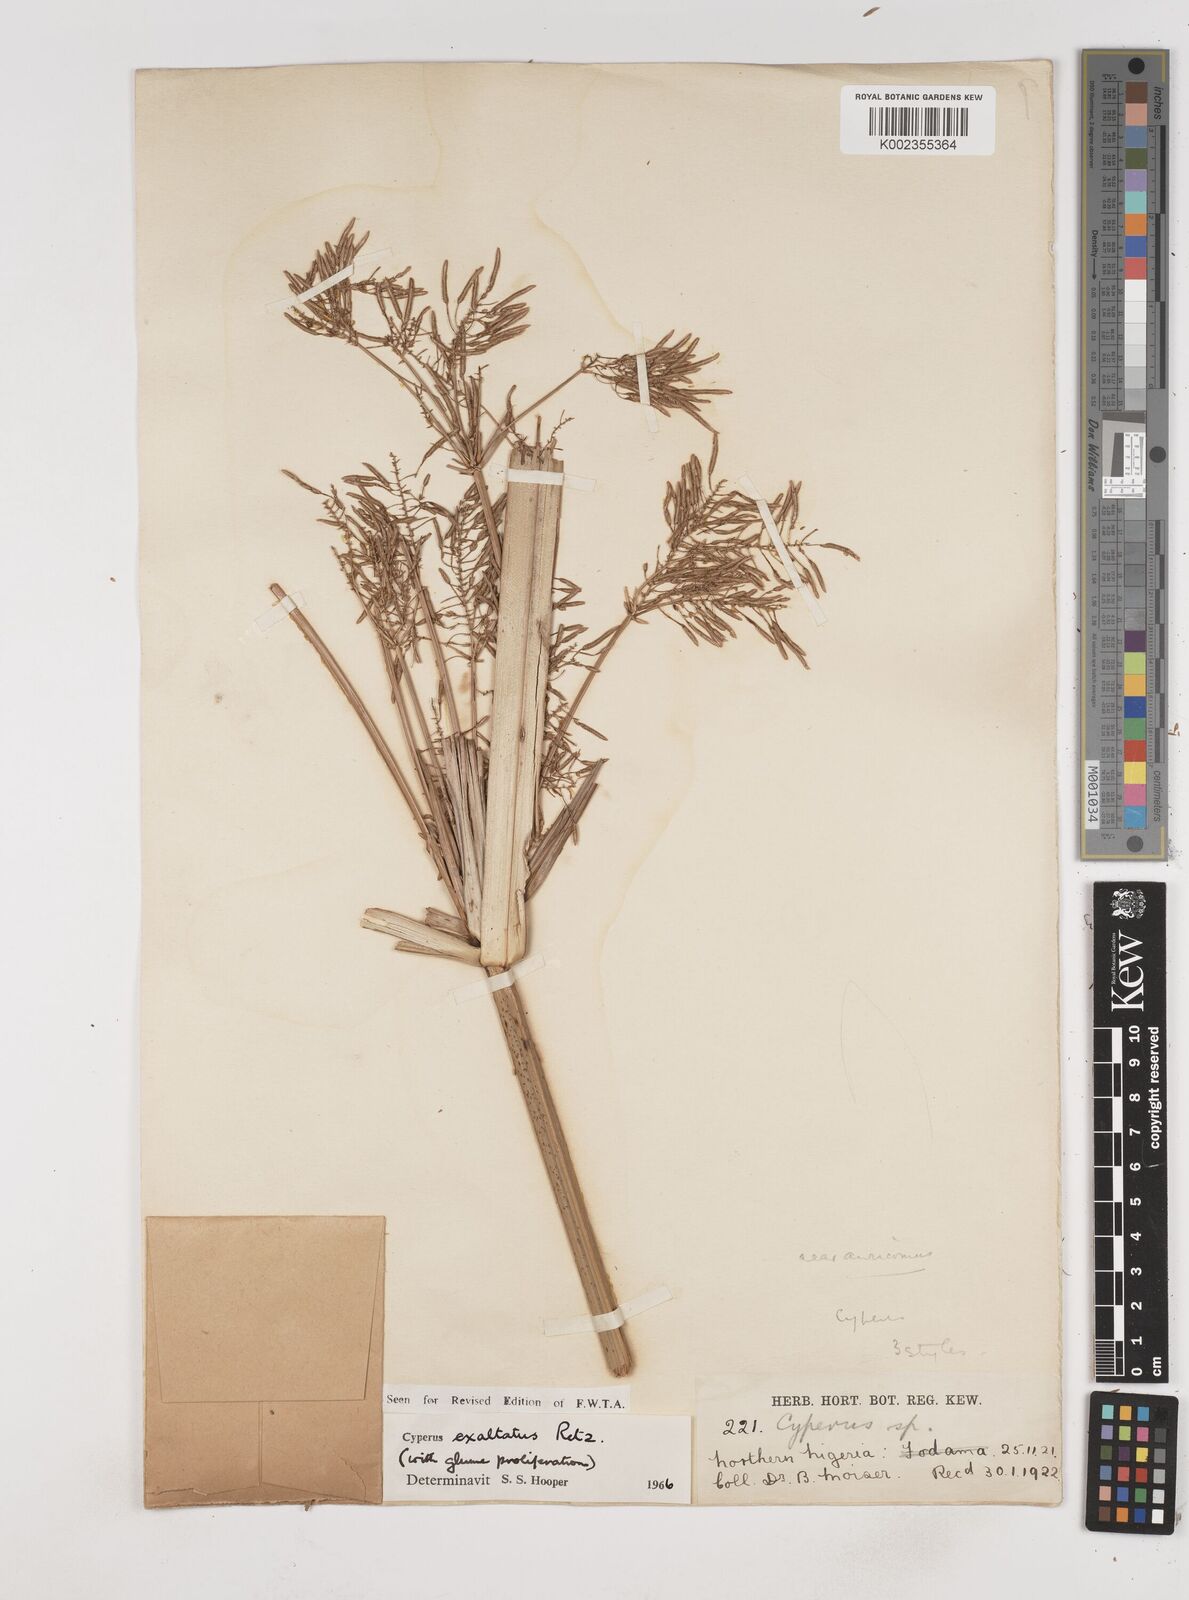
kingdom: Plantae
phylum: Tracheophyta
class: Liliopsida
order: Poales
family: Cyperaceae
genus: Cyperus
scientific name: Cyperus exaltatus
